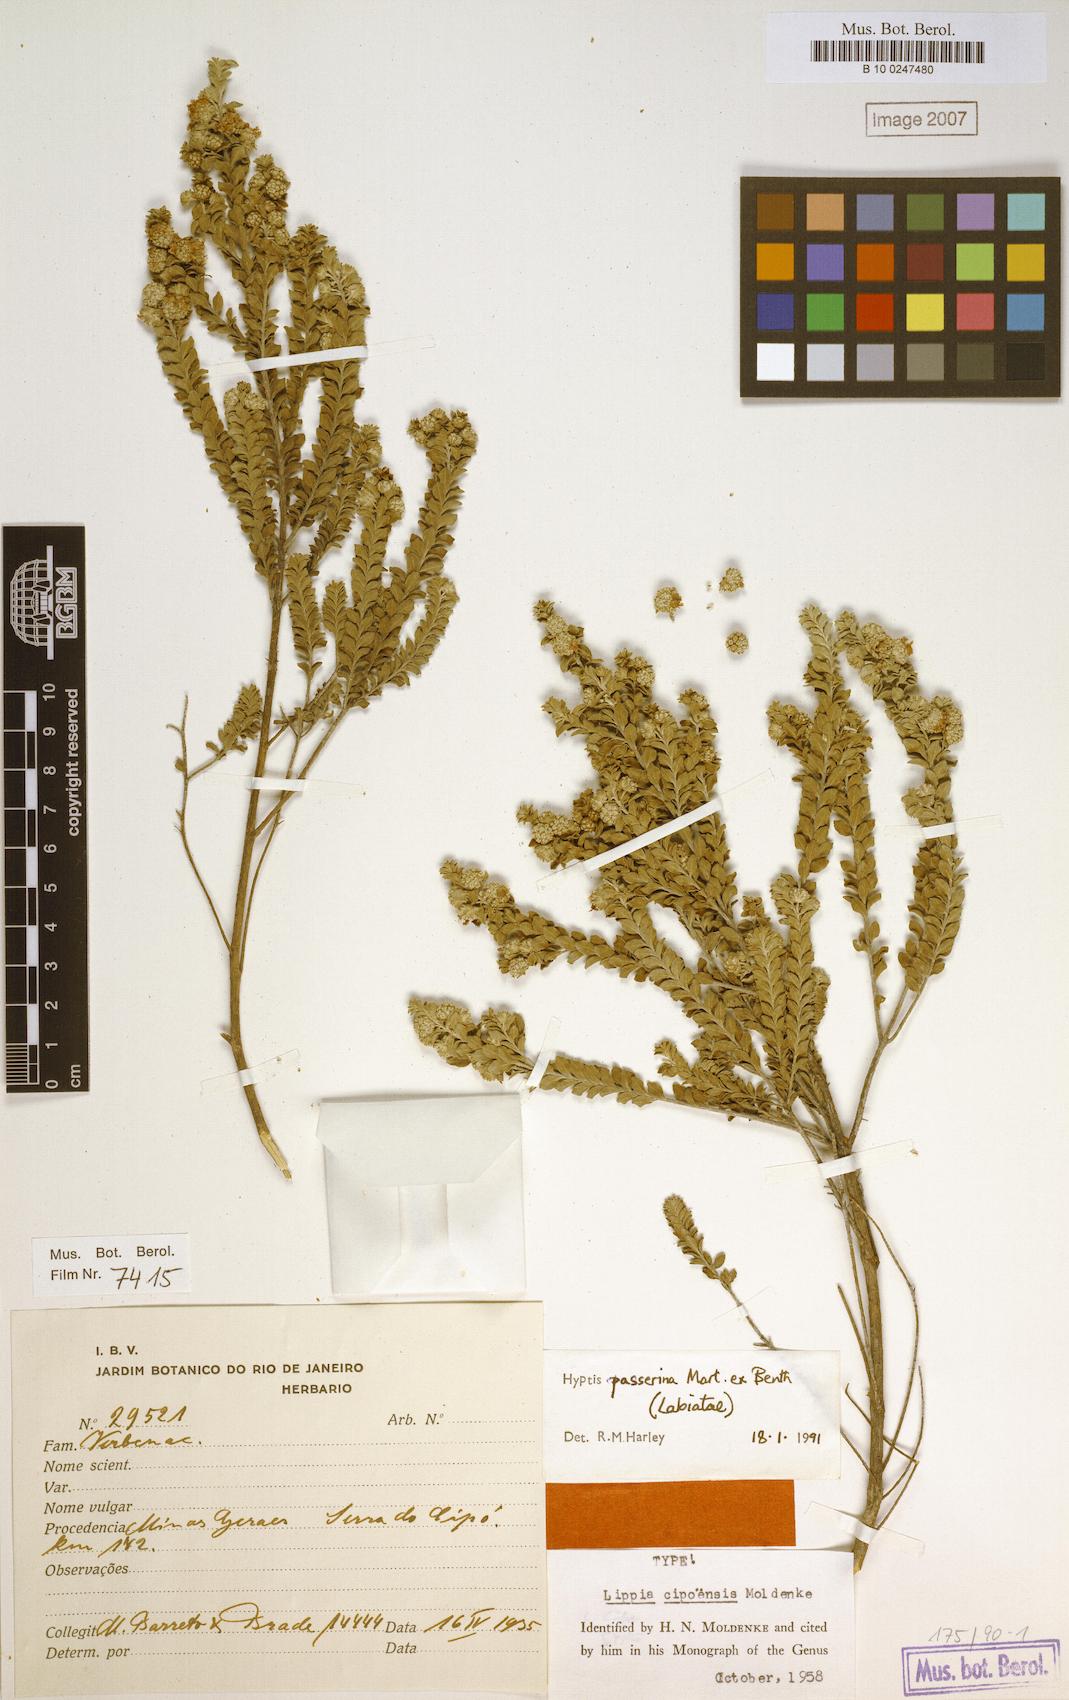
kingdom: Plantae
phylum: Tracheophyta
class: Magnoliopsida
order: Lamiales
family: Lamiaceae
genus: Hyptis
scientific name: Hyptis passerina
